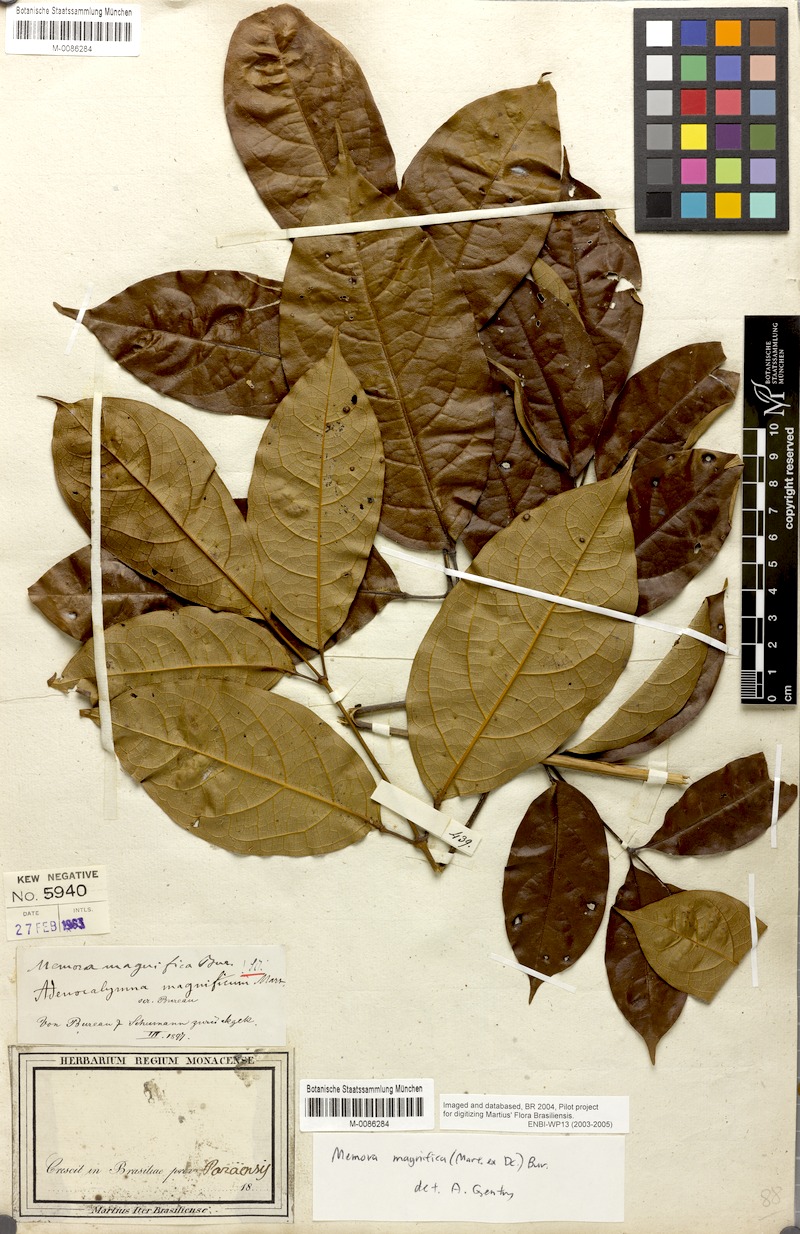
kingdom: Plantae
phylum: Tracheophyta
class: Magnoliopsida
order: Lamiales
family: Bignoniaceae
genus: Adenocalymma
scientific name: Adenocalymma magnificum
